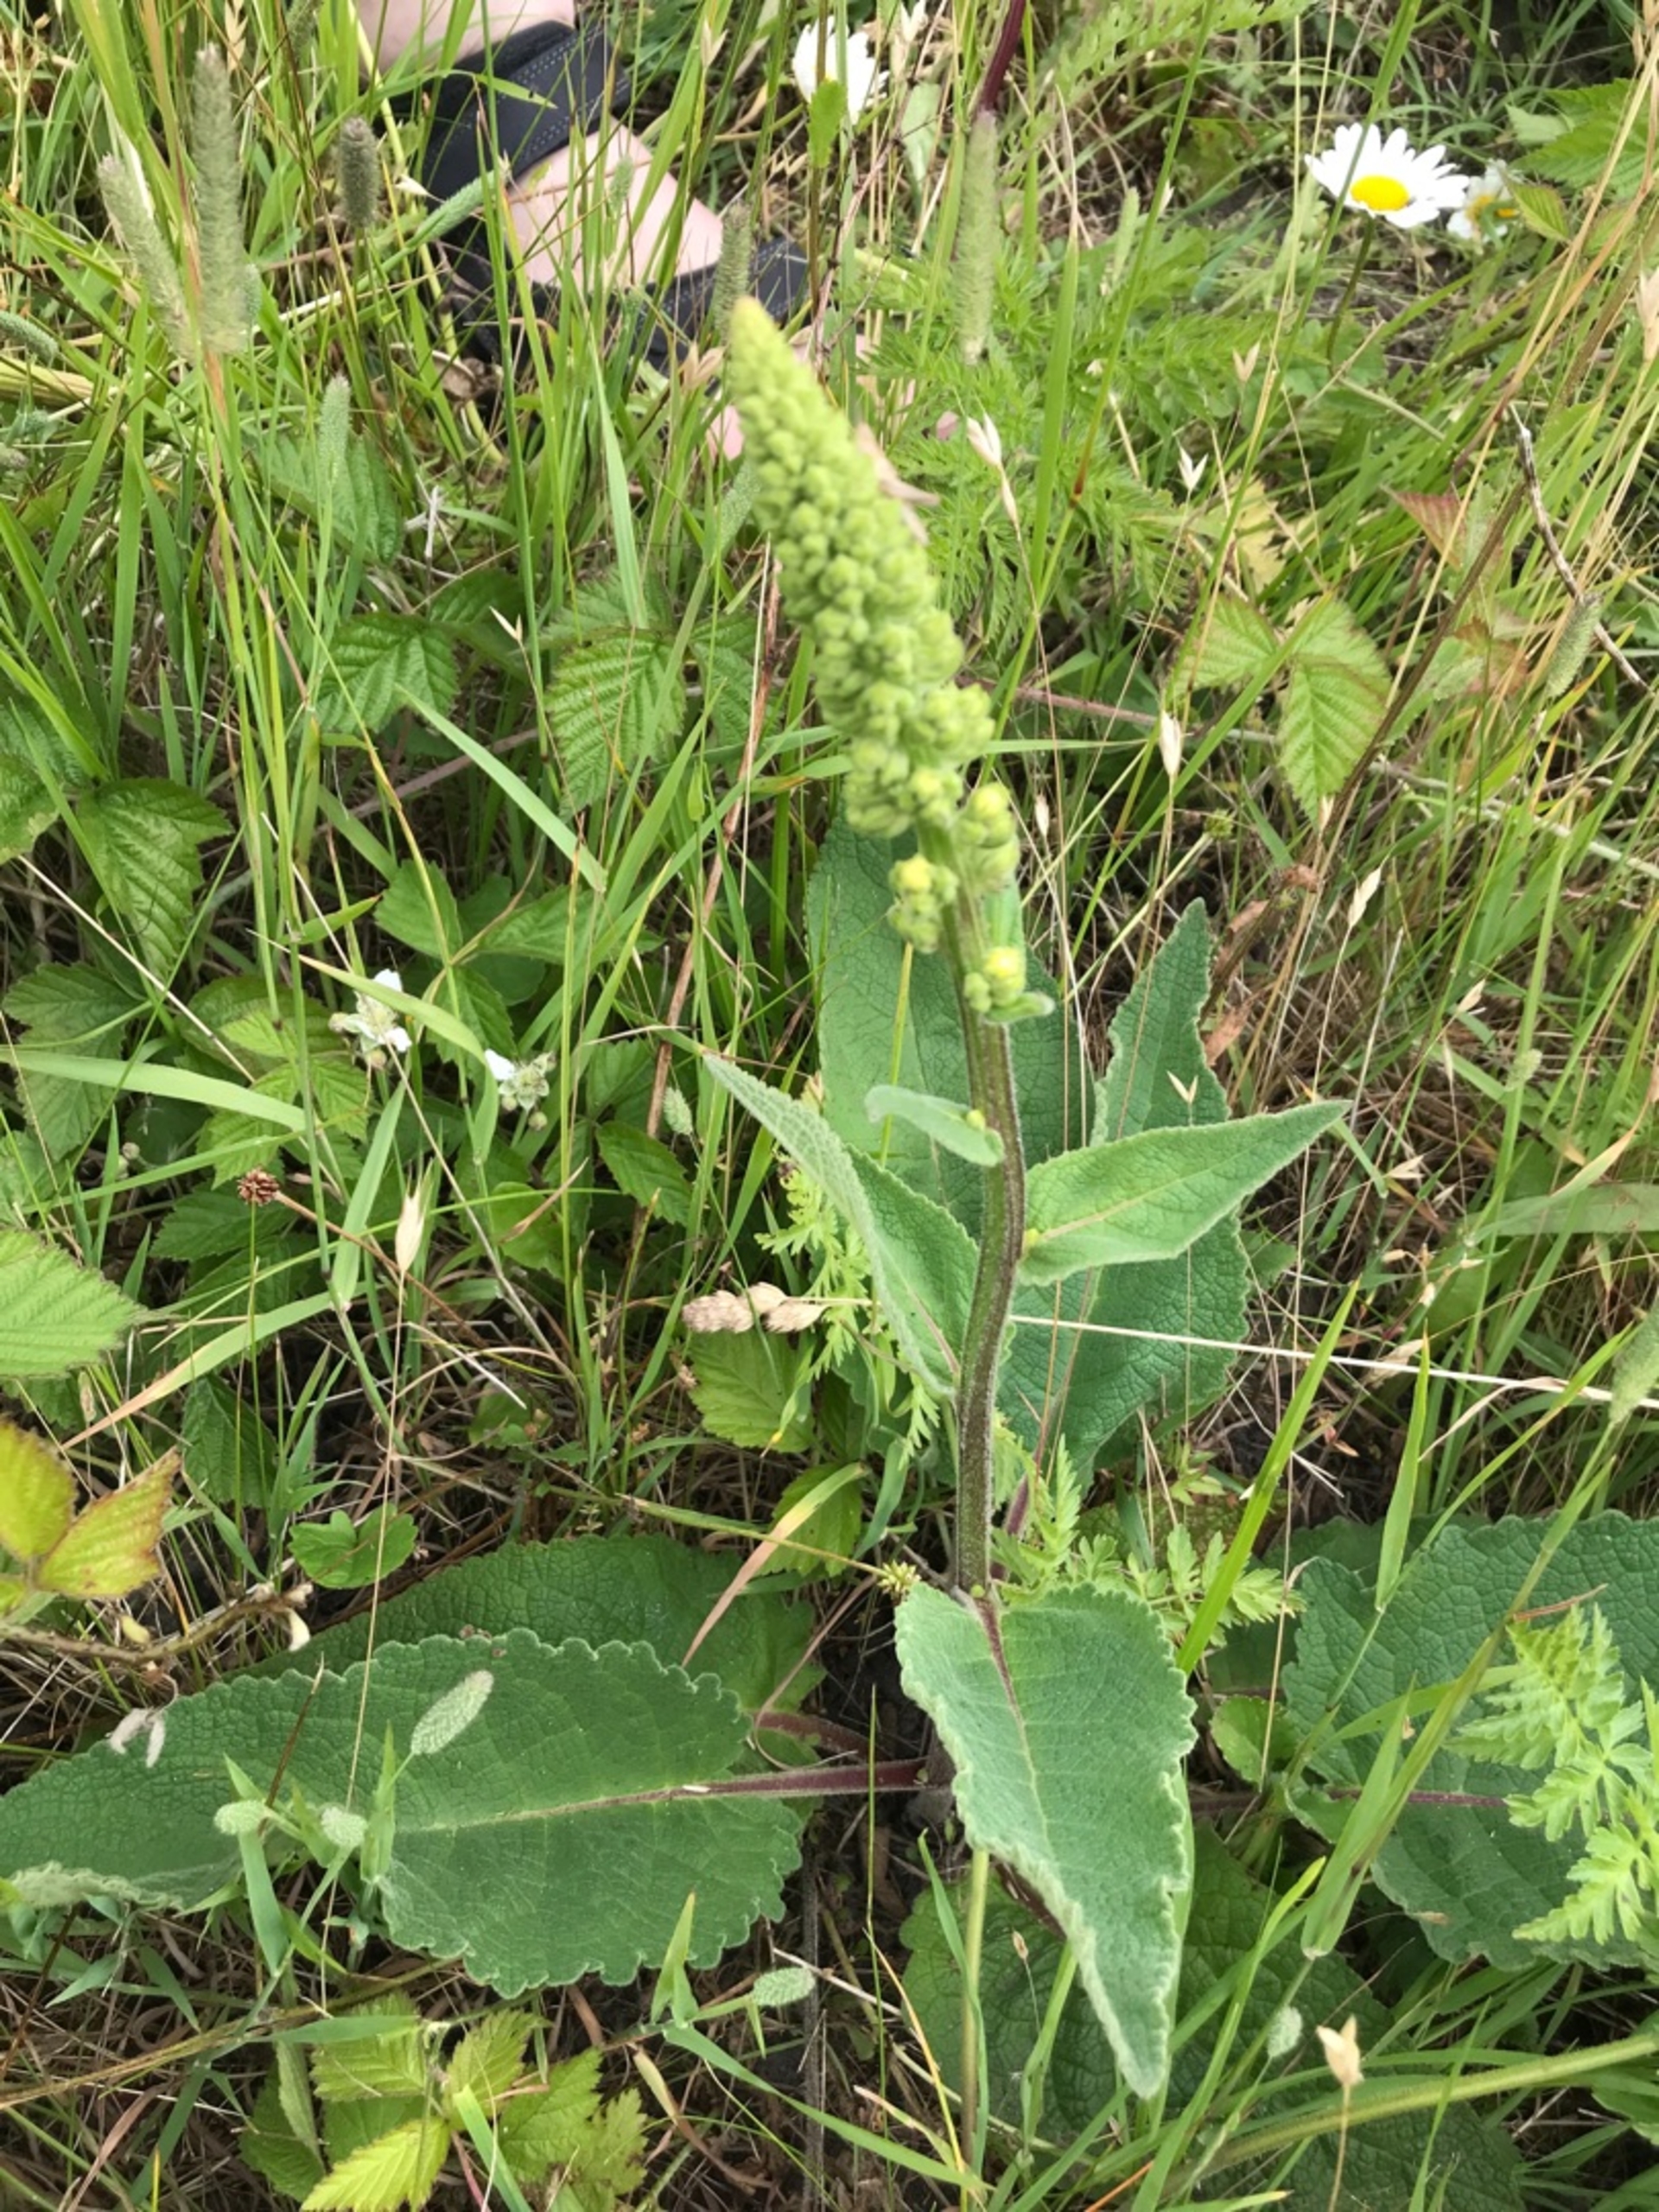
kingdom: Plantae
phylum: Tracheophyta
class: Magnoliopsida
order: Lamiales
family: Scrophulariaceae
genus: Verbascum
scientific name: Verbascum nigrum
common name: Mørk kongelys
